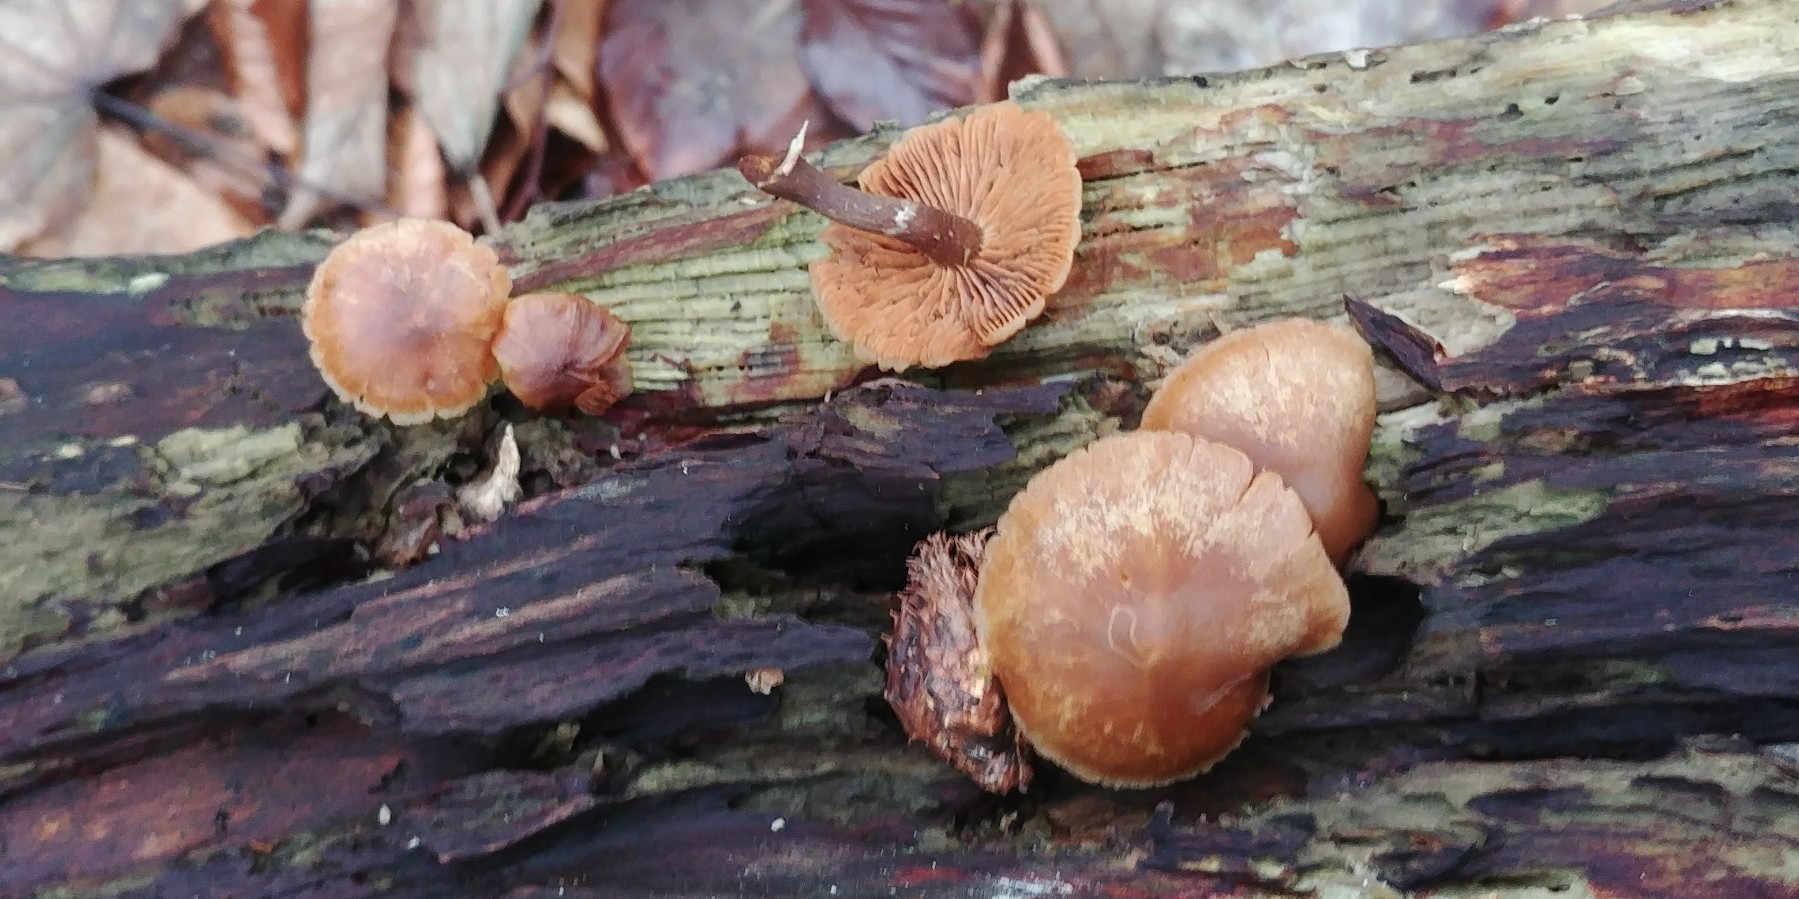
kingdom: Fungi
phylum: Basidiomycota
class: Agaricomycetes
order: Agaricales
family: Tubariaceae
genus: Tubaria
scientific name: Tubaria furfuracea
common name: kliddet fnughat
